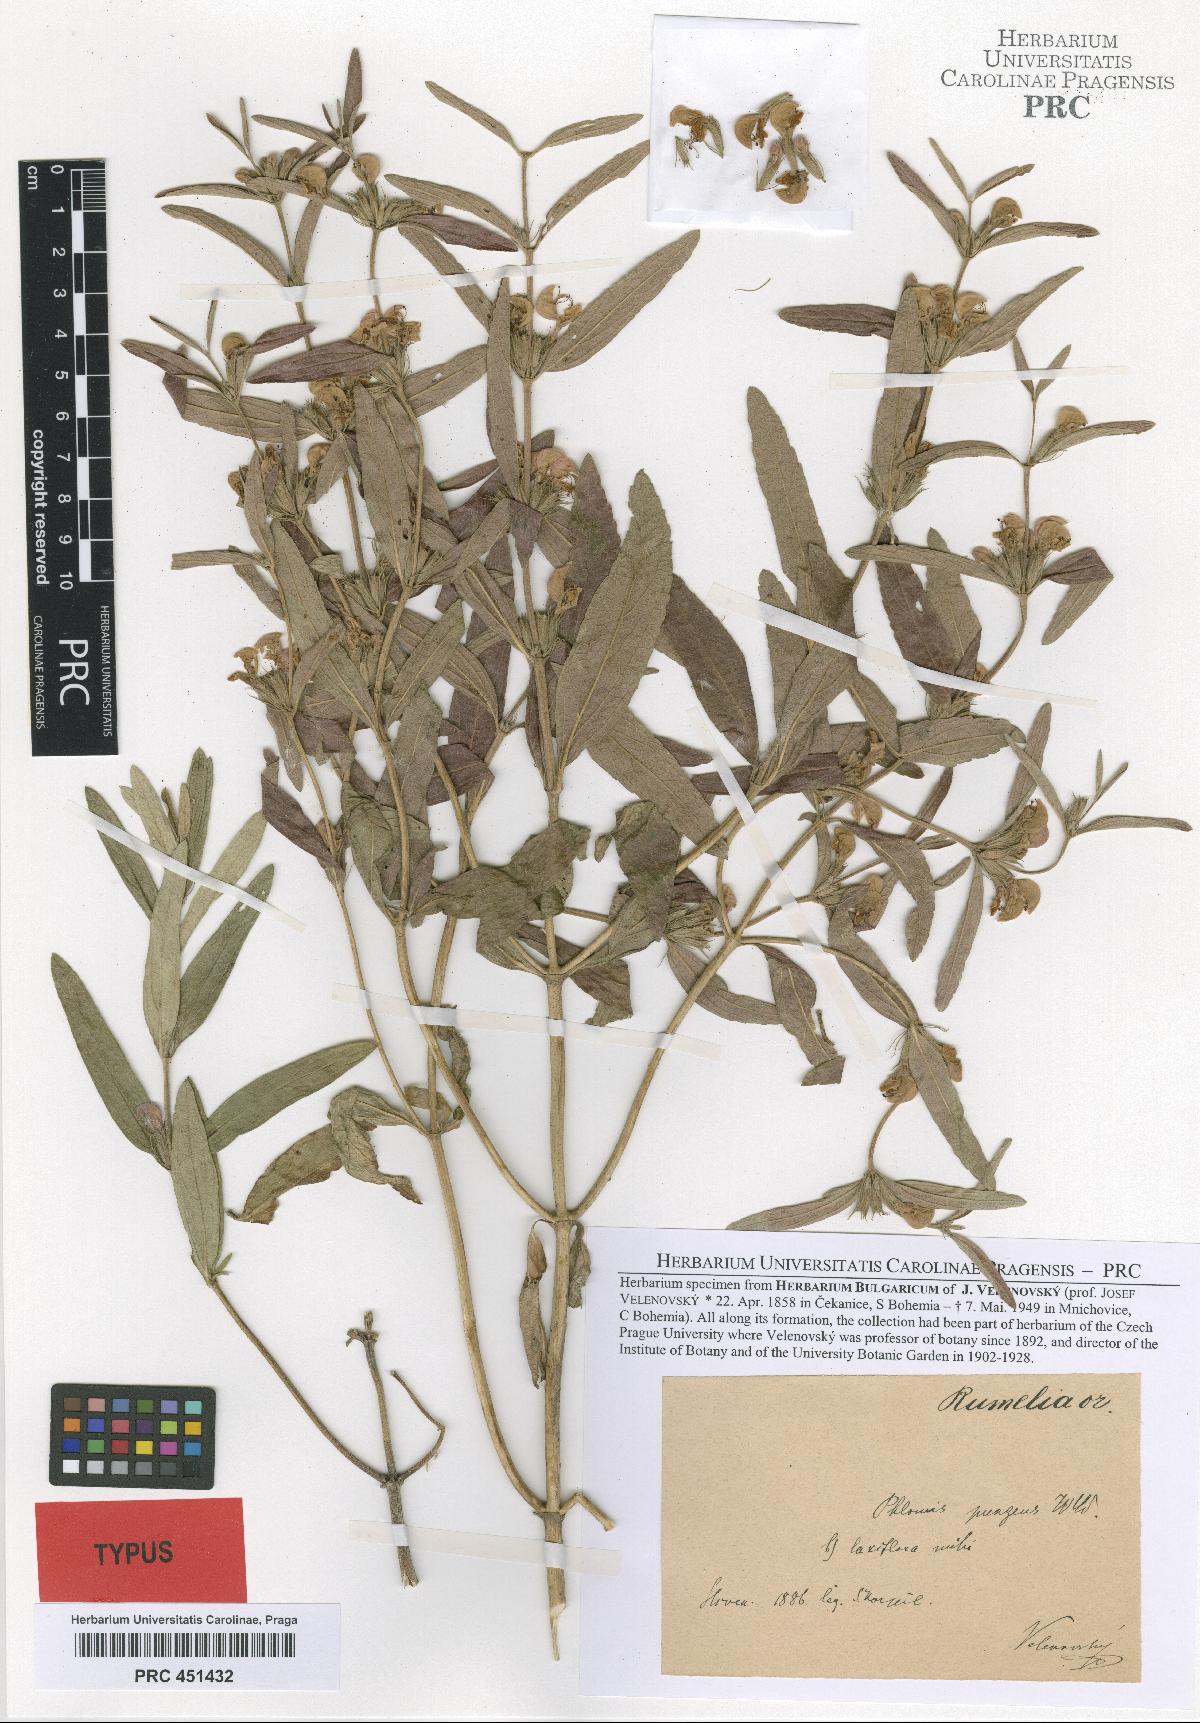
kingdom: Plantae
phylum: Tracheophyta
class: Magnoliopsida
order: Lamiales
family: Lamiaceae
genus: Phlomis
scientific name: Phlomis herba-venti
